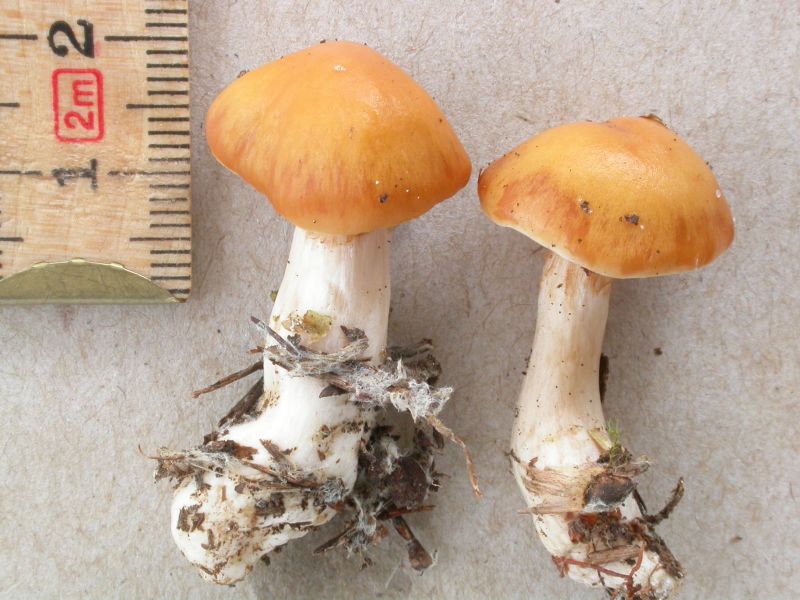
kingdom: Fungi
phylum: Basidiomycota
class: Agaricomycetes
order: Agaricales
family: Cortinariaceae
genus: Thaxterogaster
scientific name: Thaxterogaster causticus
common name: peber-slørhat
